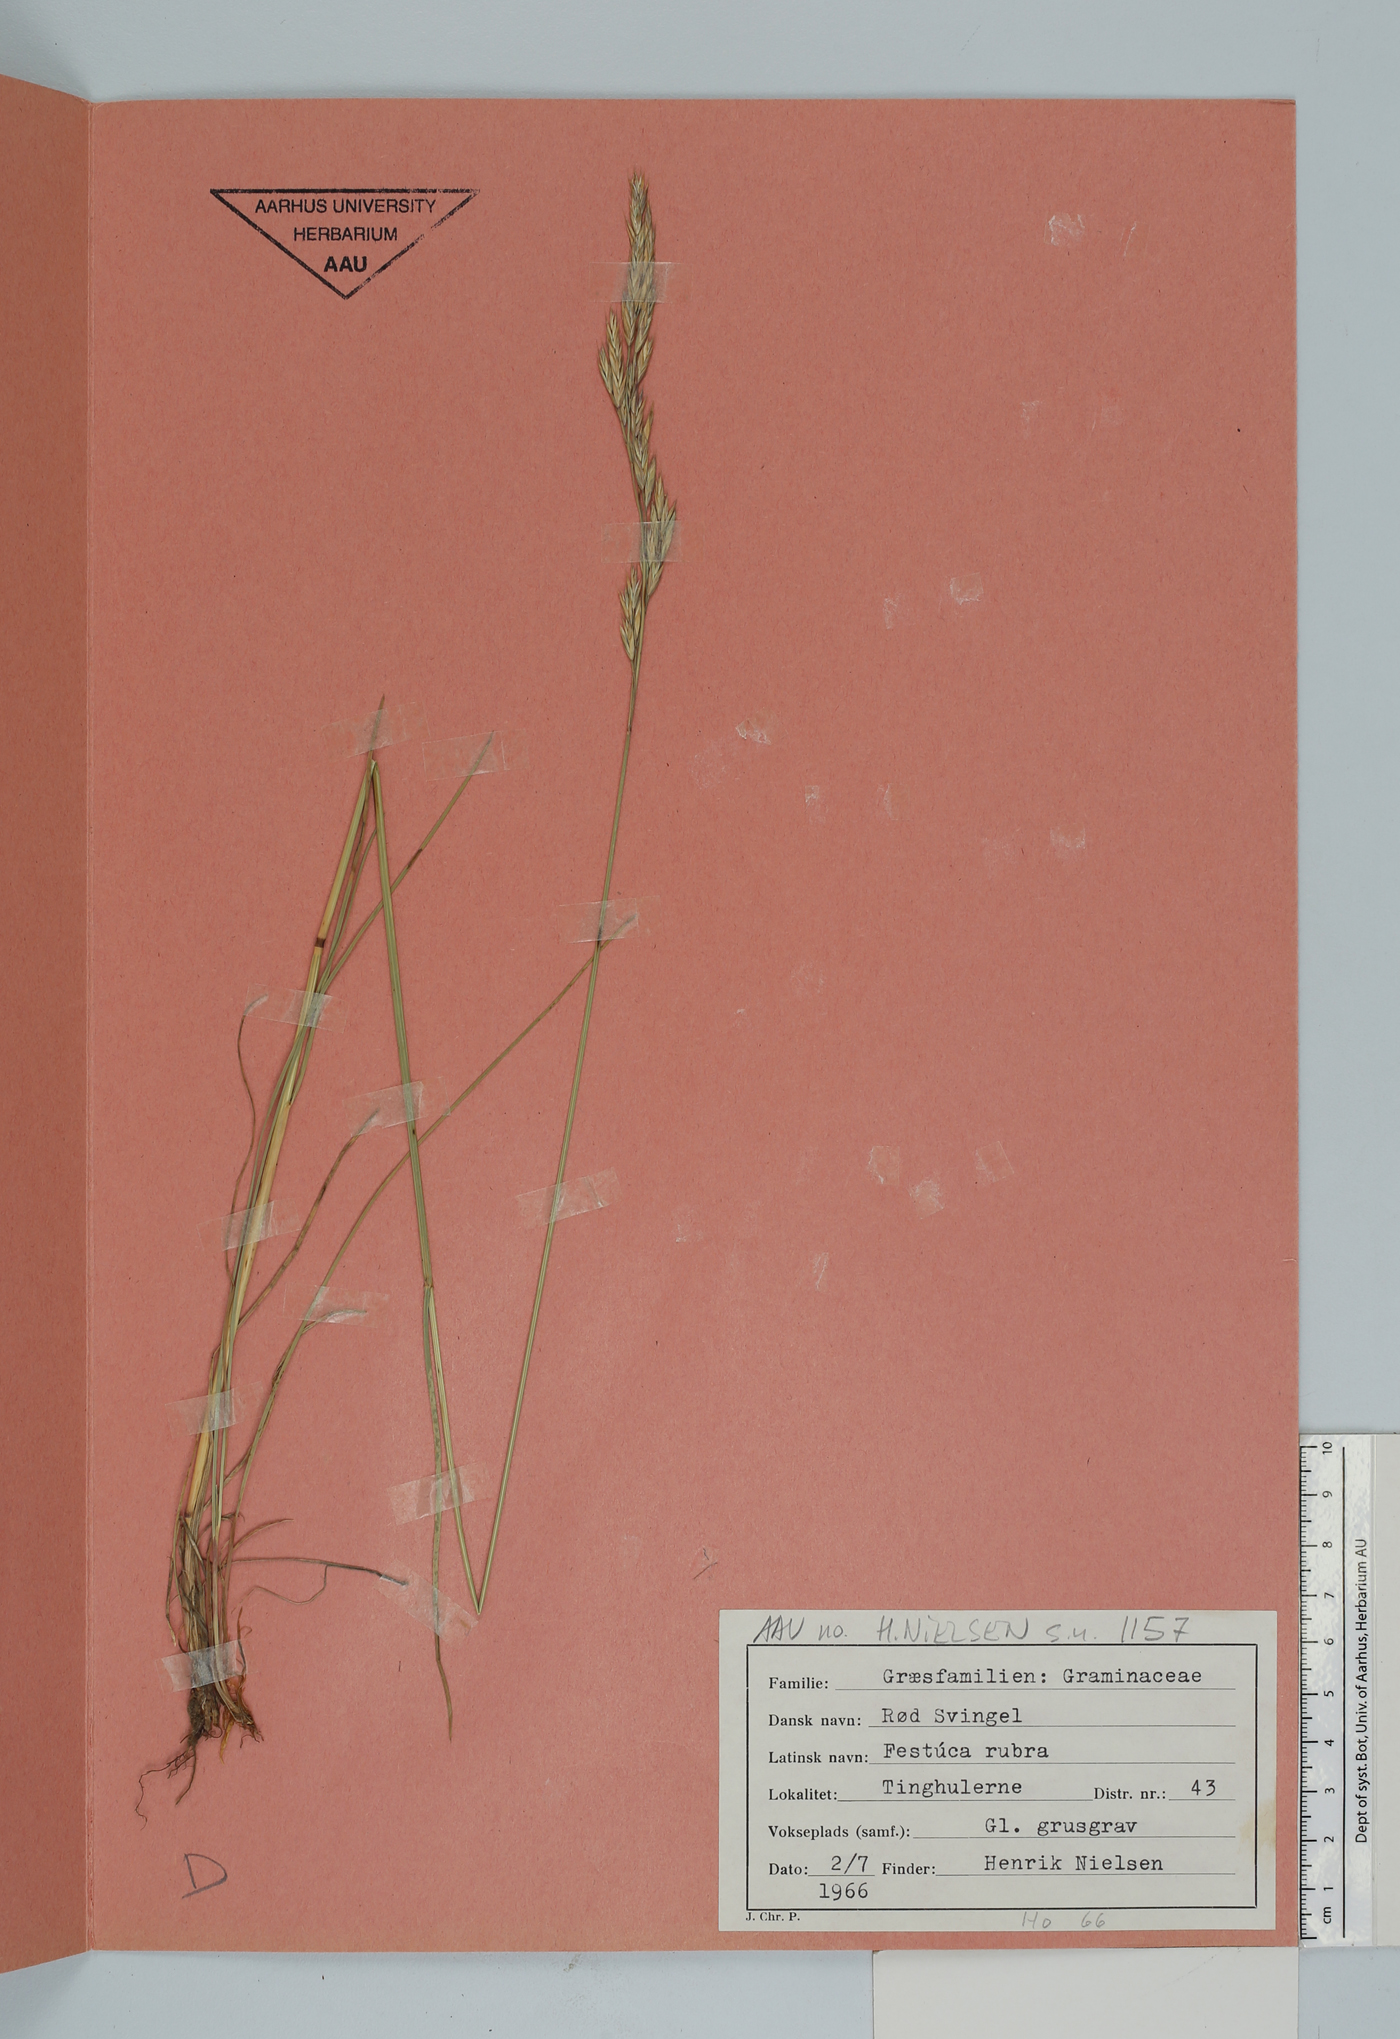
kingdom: Plantae
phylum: Tracheophyta
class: Liliopsida
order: Poales
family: Poaceae
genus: Festuca
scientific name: Festuca rubra
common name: Red fescue
